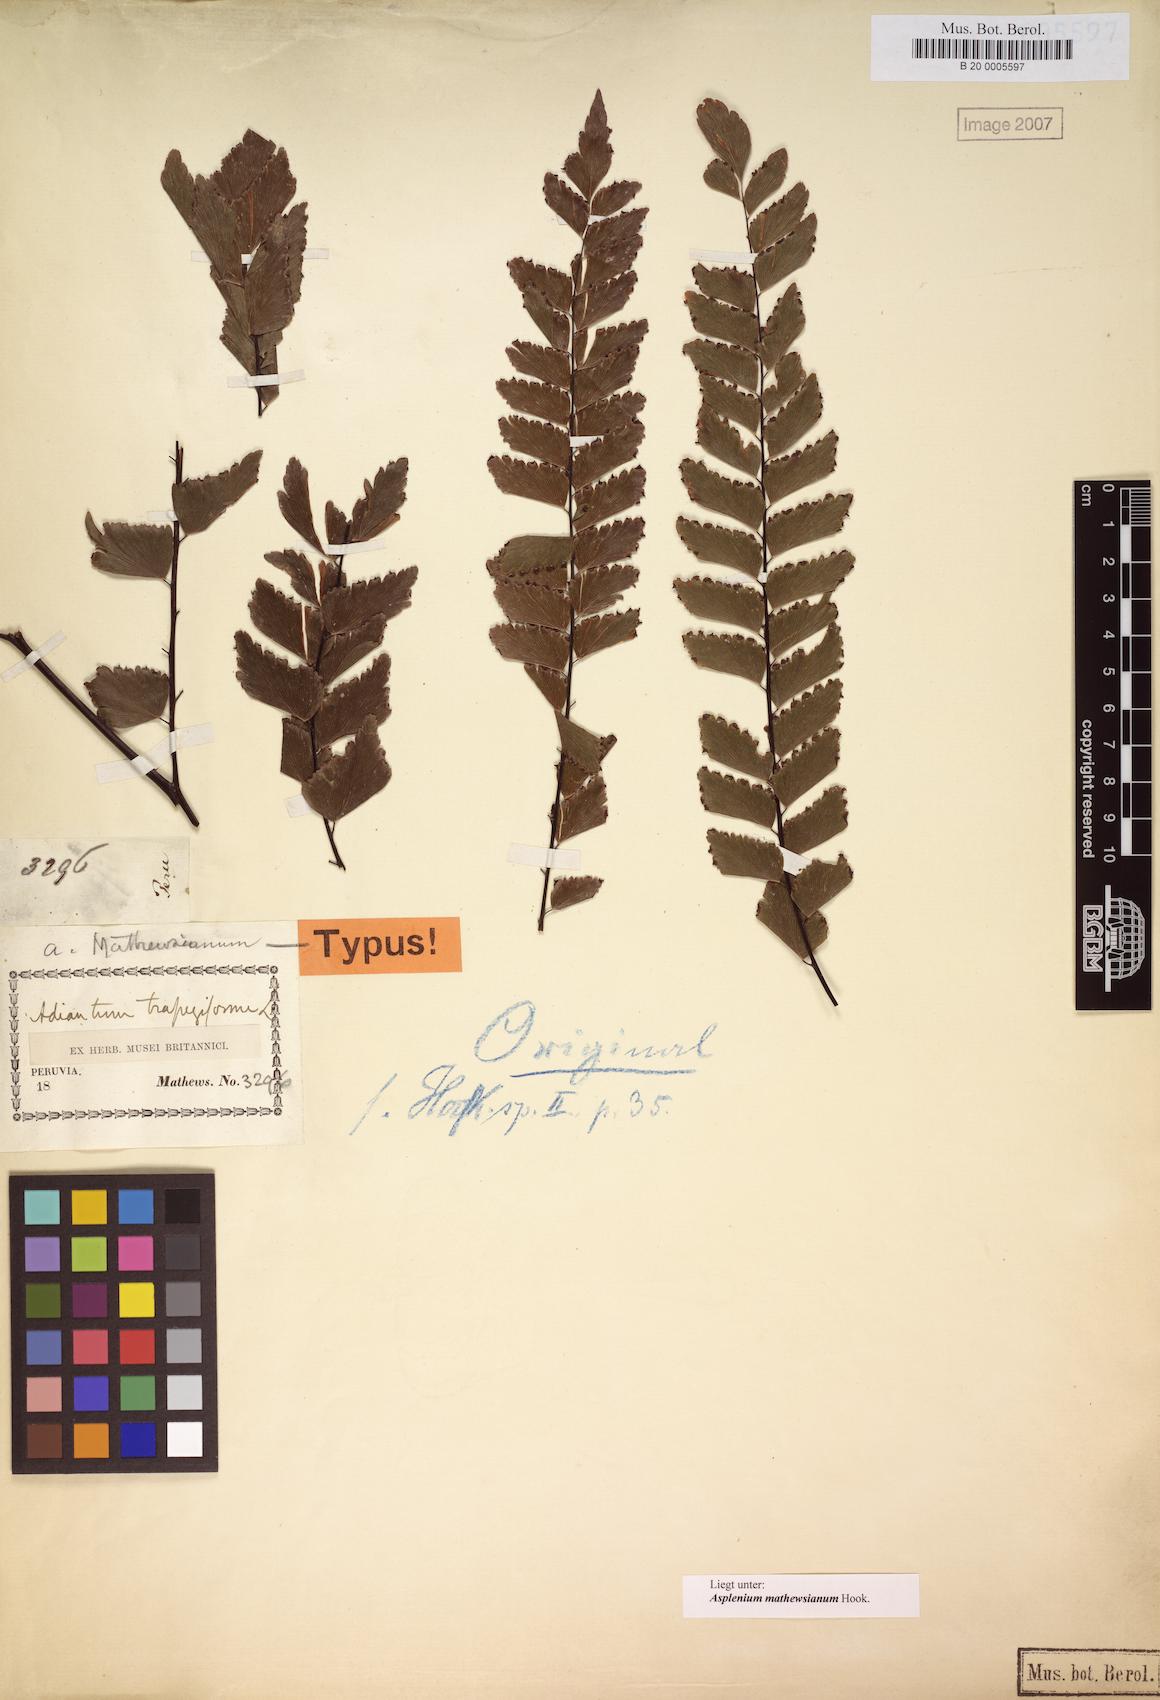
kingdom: Plantae
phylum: Tracheophyta
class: Polypodiopsida
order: Polypodiales
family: Pteridaceae
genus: Adiantum
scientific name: Adiantum mathewsianum
